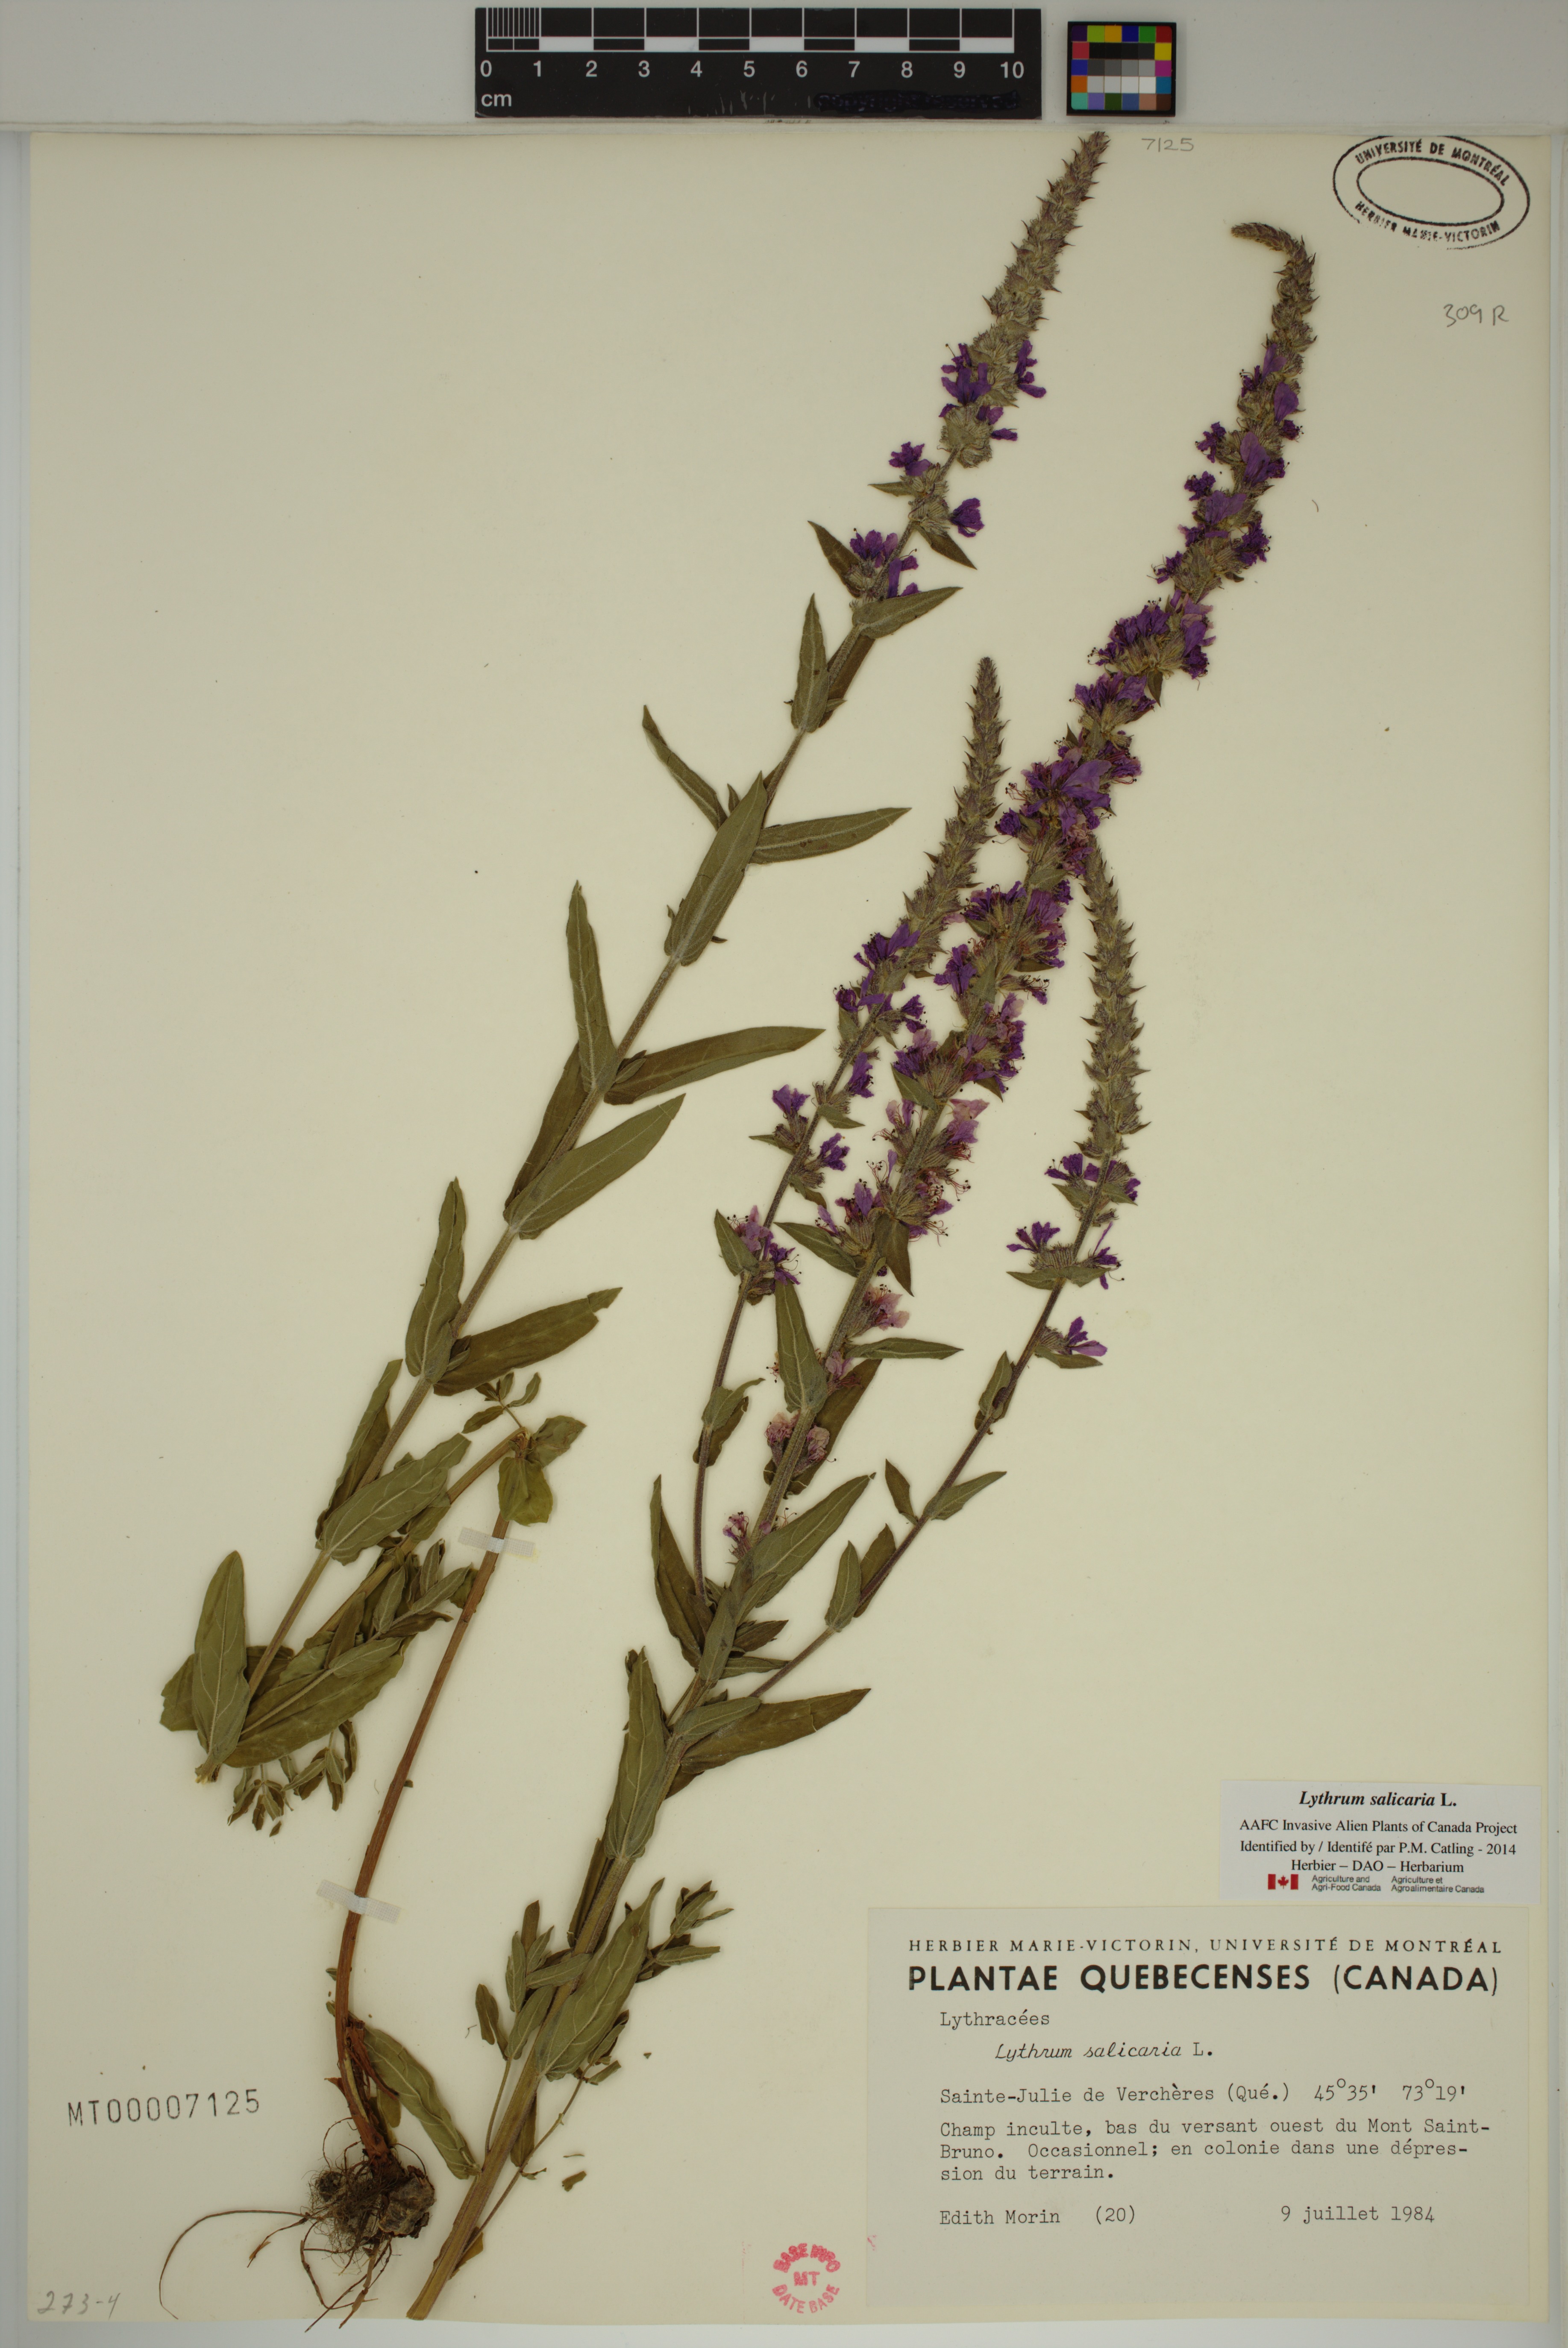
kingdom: Plantae
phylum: Tracheophyta
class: Magnoliopsida
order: Myrtales
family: Lythraceae
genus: Lythrum
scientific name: Lythrum salicaria
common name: Purple loosestrife
